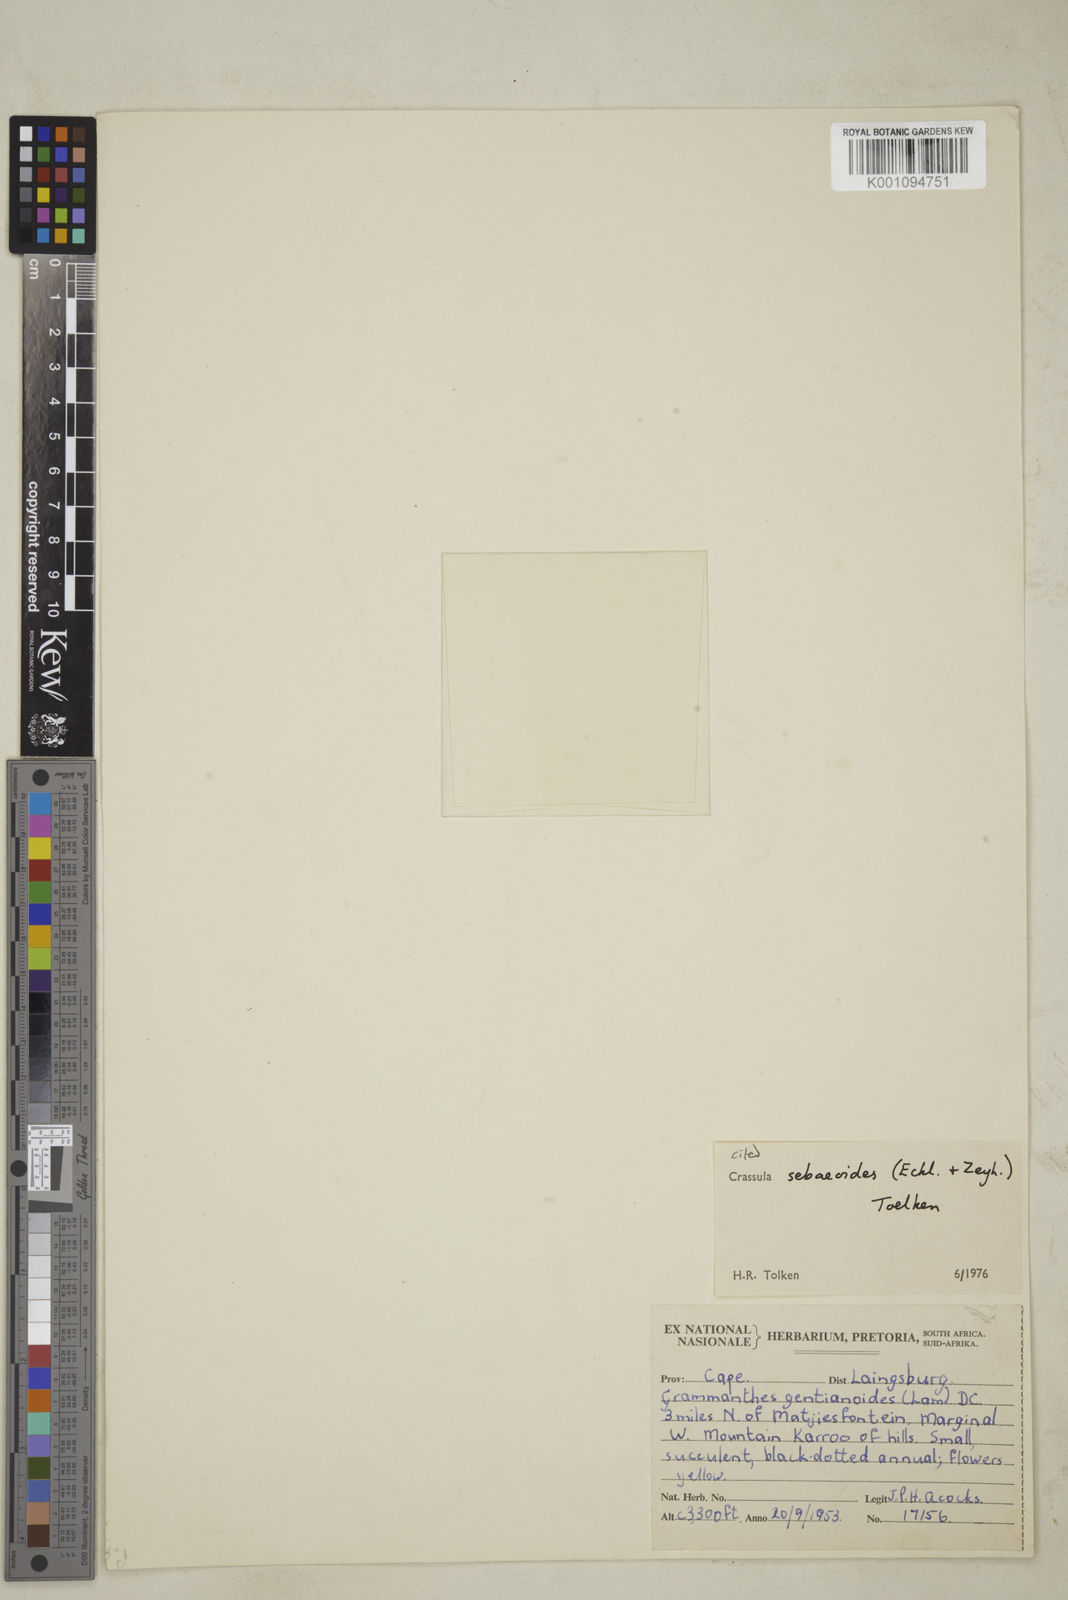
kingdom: Plantae
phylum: Tracheophyta
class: Magnoliopsida
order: Saxifragales
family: Crassulaceae
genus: Crassula
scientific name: Crassula sebaeoides
